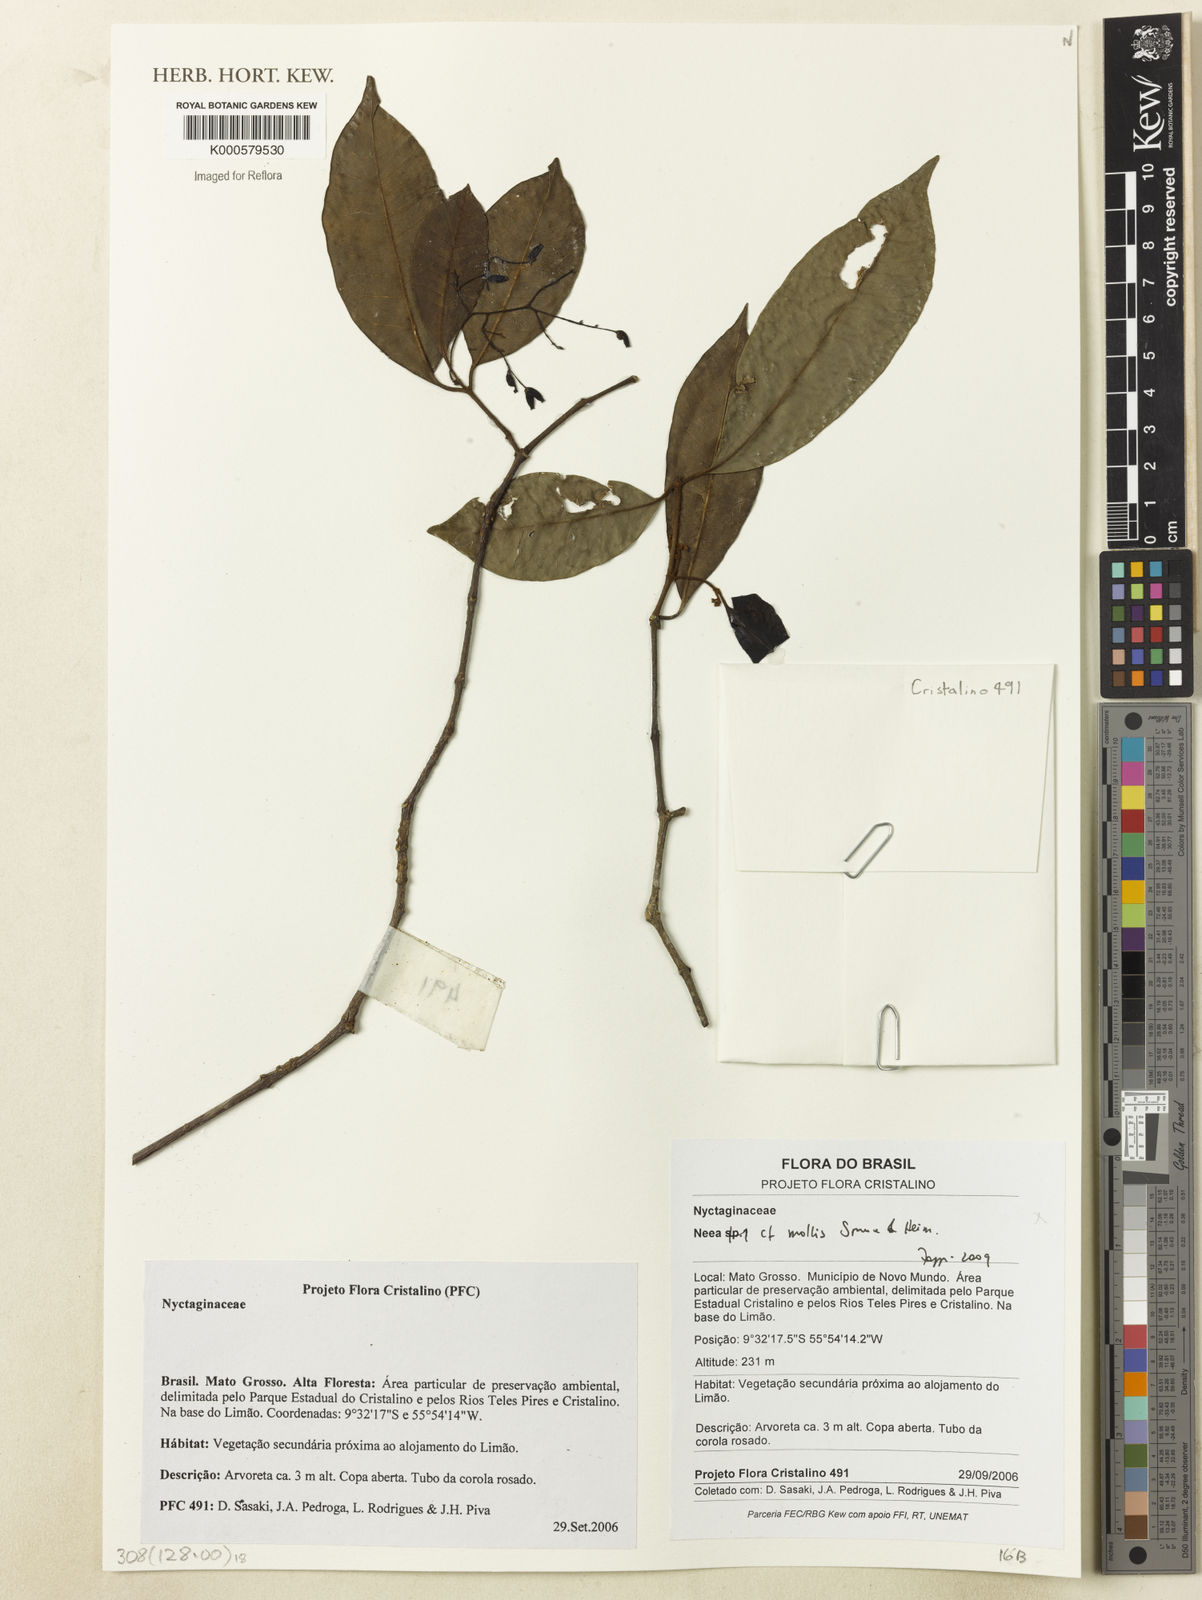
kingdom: Plantae
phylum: Tracheophyta
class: Magnoliopsida
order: Caryophyllales
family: Nyctaginaceae
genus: Neea
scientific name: Neea
